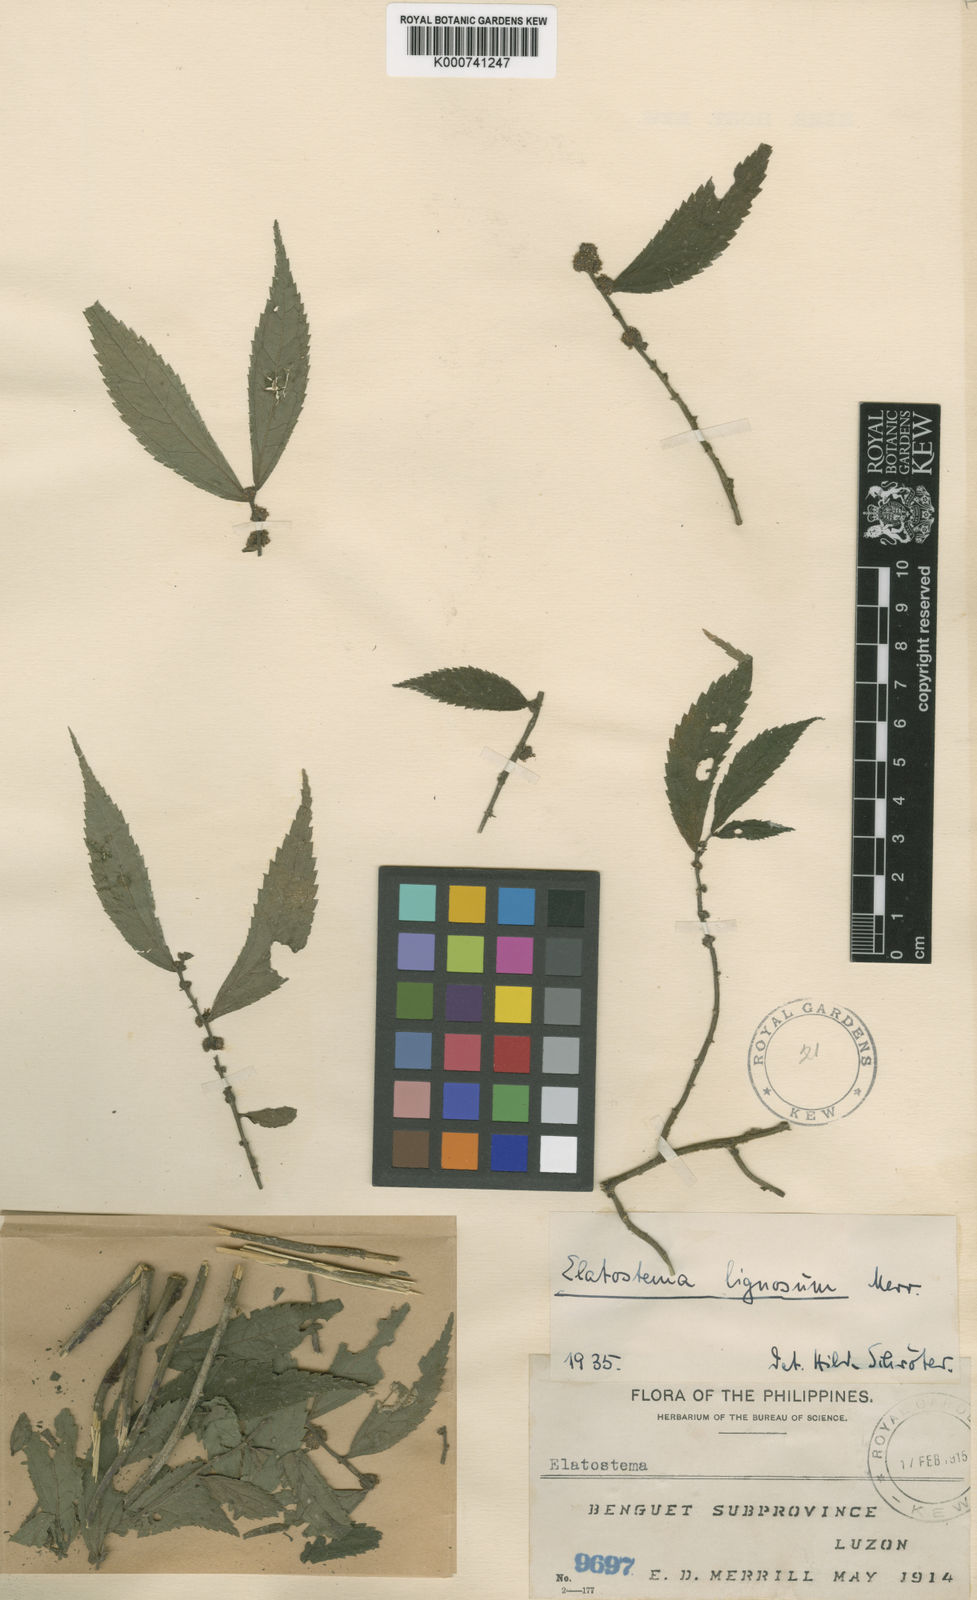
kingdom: Plantae
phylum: Tracheophyta
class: Magnoliopsida
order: Rosales
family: Urticaceae
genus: Elatostema
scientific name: Elatostema lignosum
